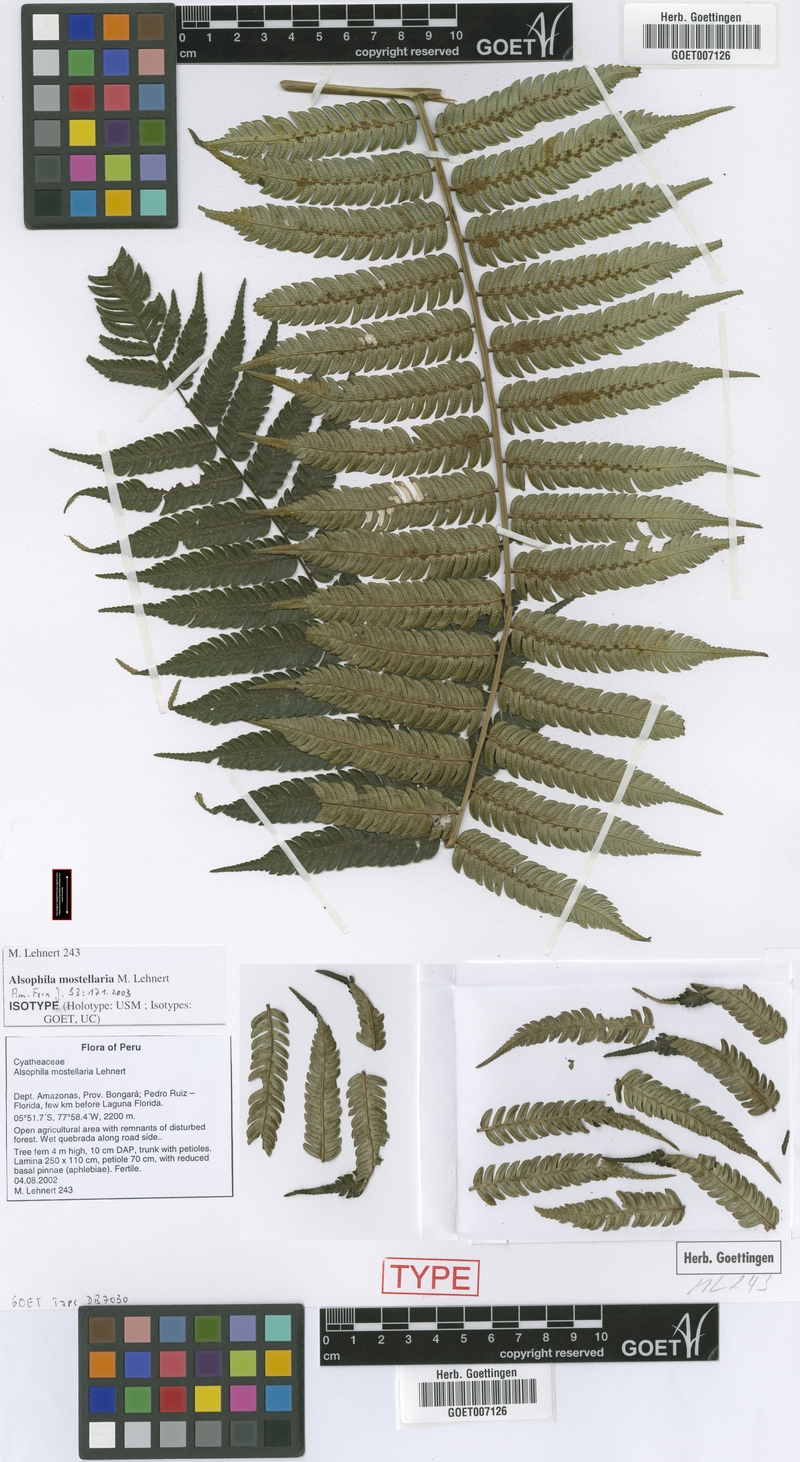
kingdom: Plantae
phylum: Tracheophyta
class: Polypodiopsida
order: Cyatheales
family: Cyatheaceae
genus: Alsophila
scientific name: Alsophila mostellaria
